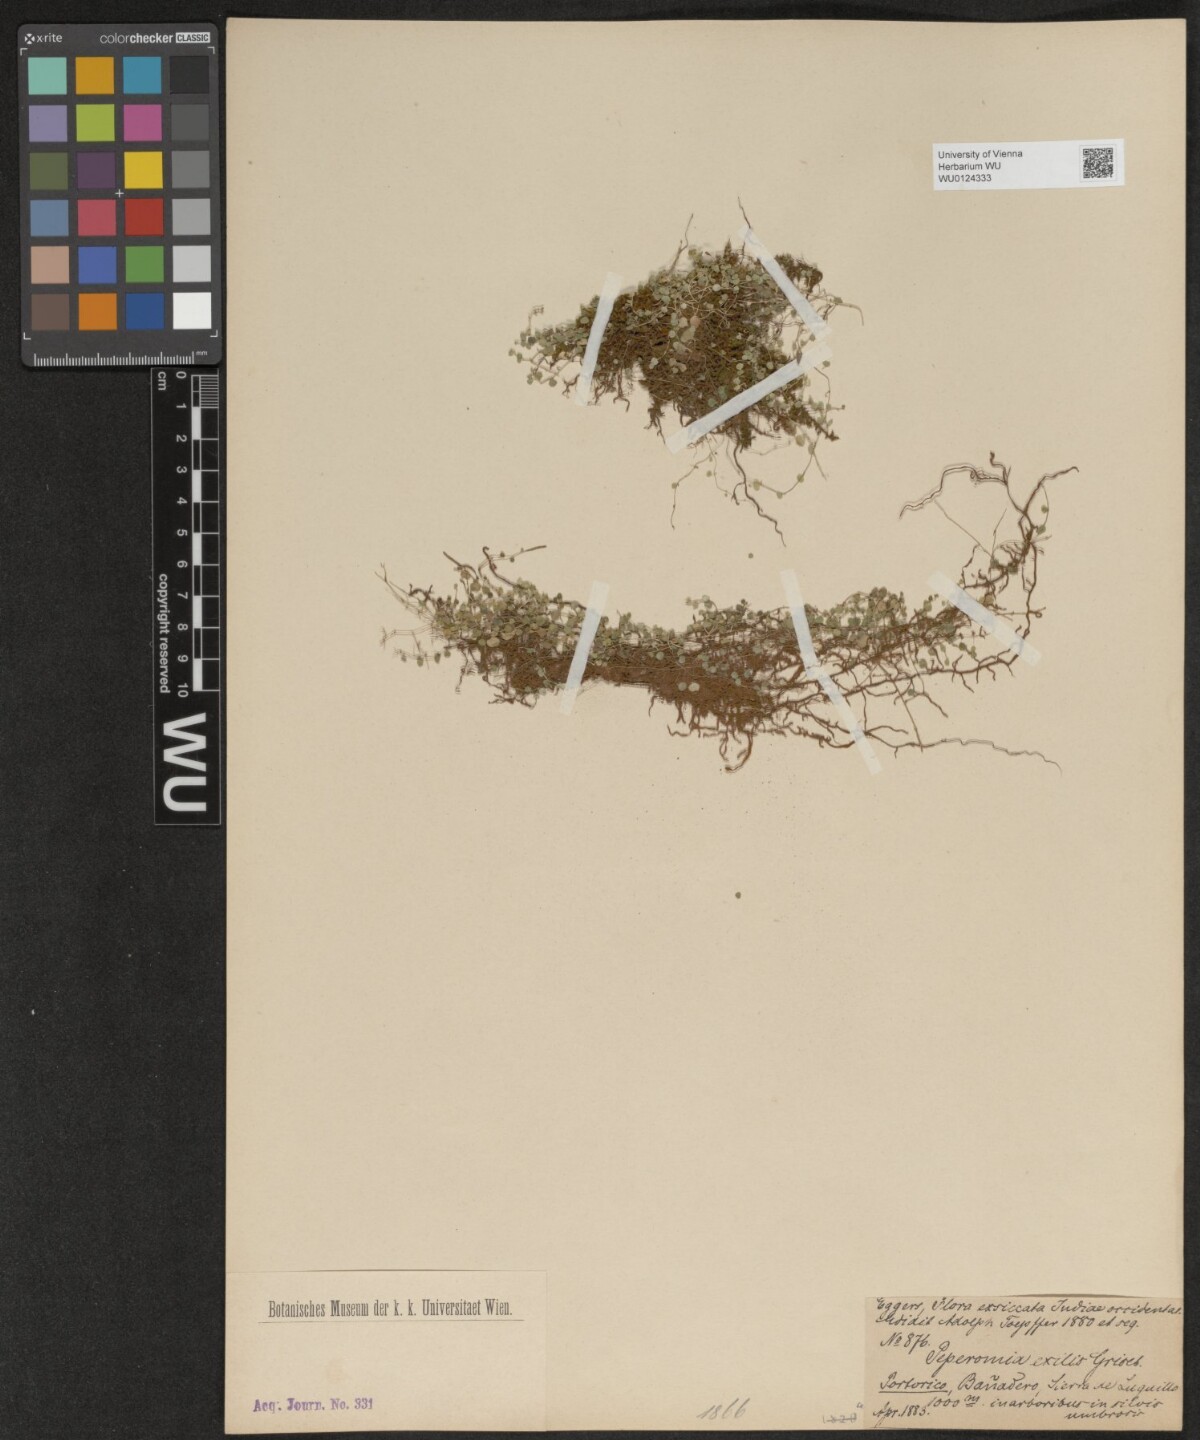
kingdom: Plantae
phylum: Tracheophyta
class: Magnoliopsida
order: Piperales
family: Piperaceae
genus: Peperomia
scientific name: Peperomia emarginella
